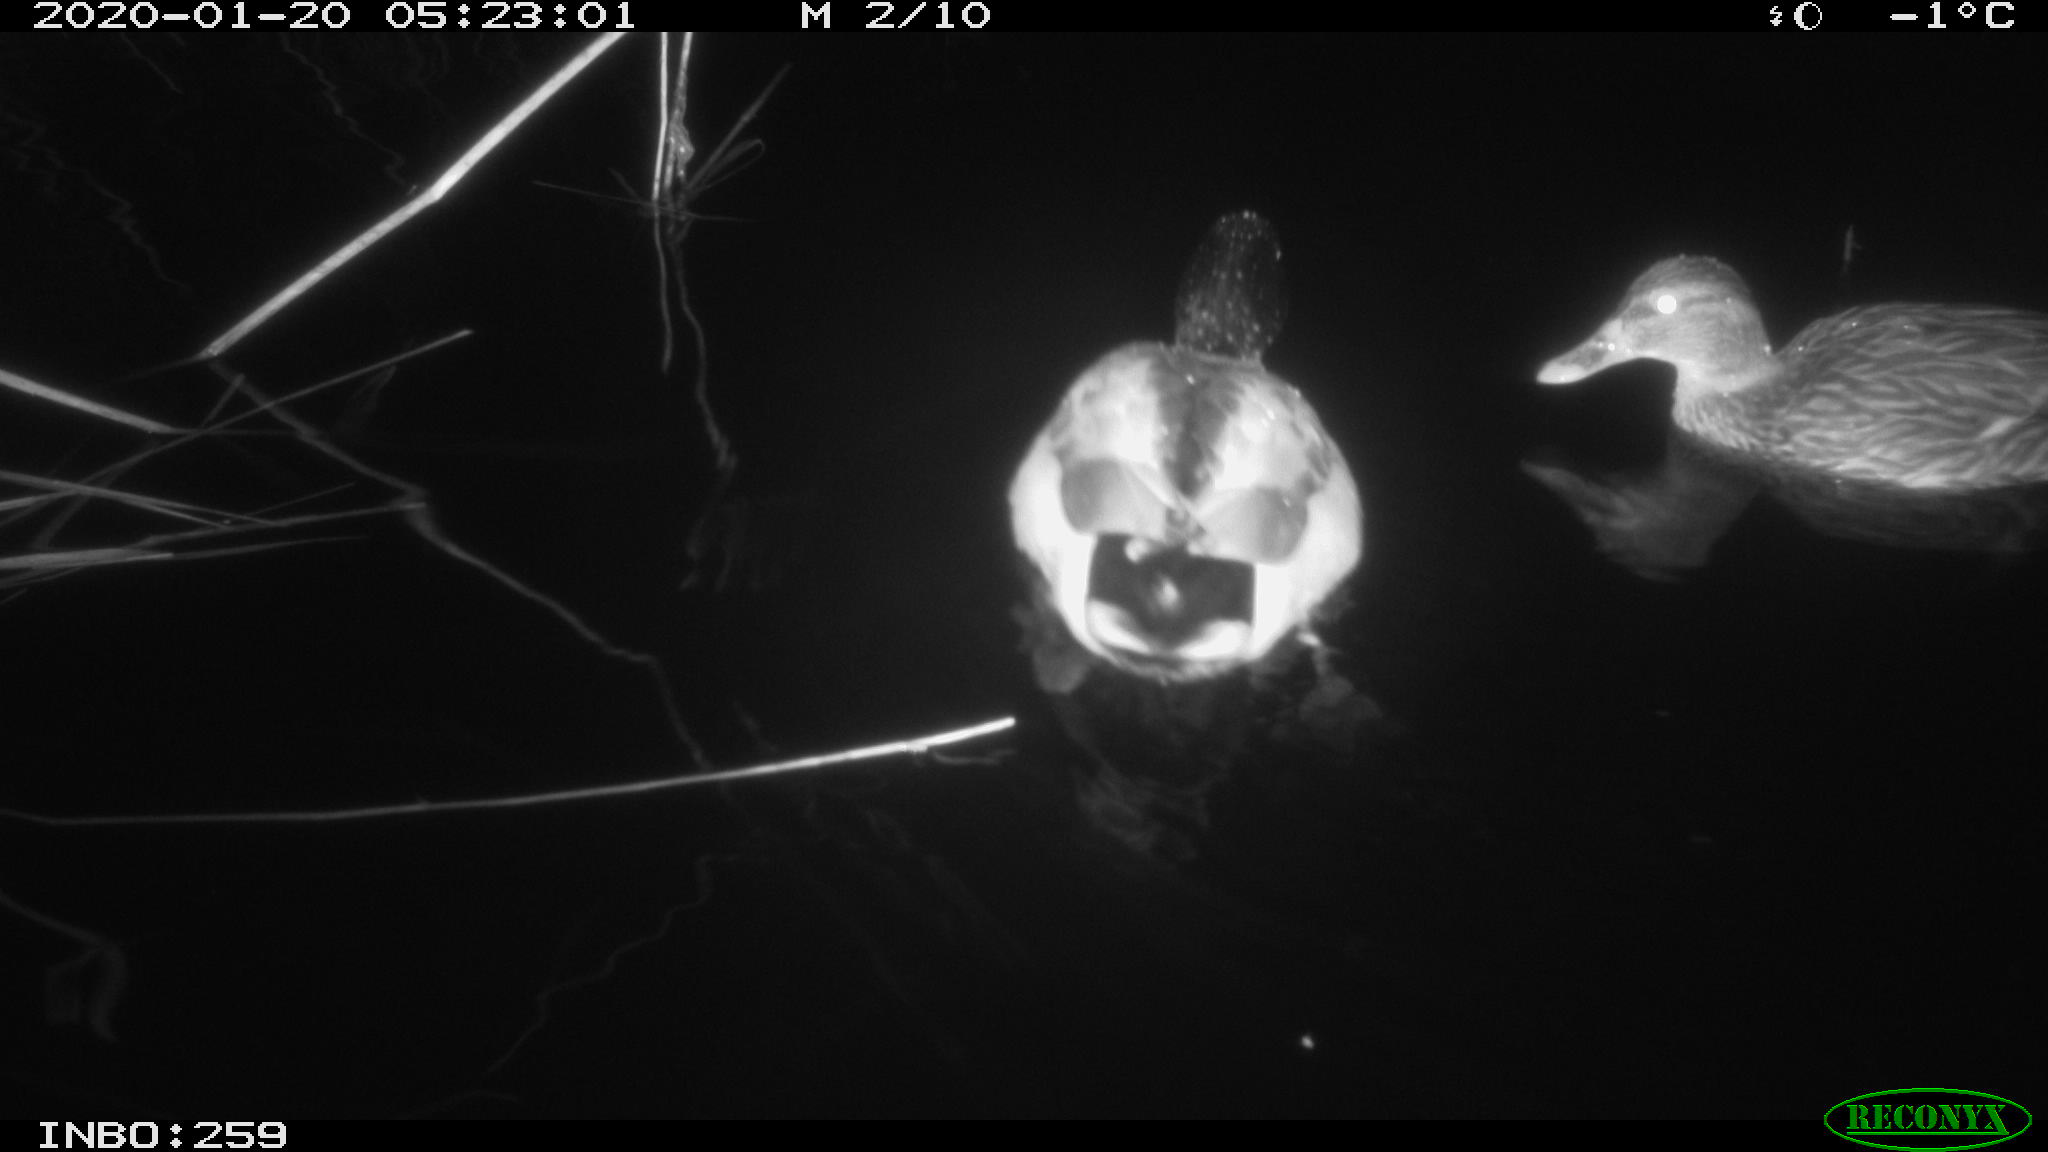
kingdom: Animalia
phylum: Chordata
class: Aves
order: Anseriformes
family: Anatidae
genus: Anas
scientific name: Anas platyrhynchos
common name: Mallard
